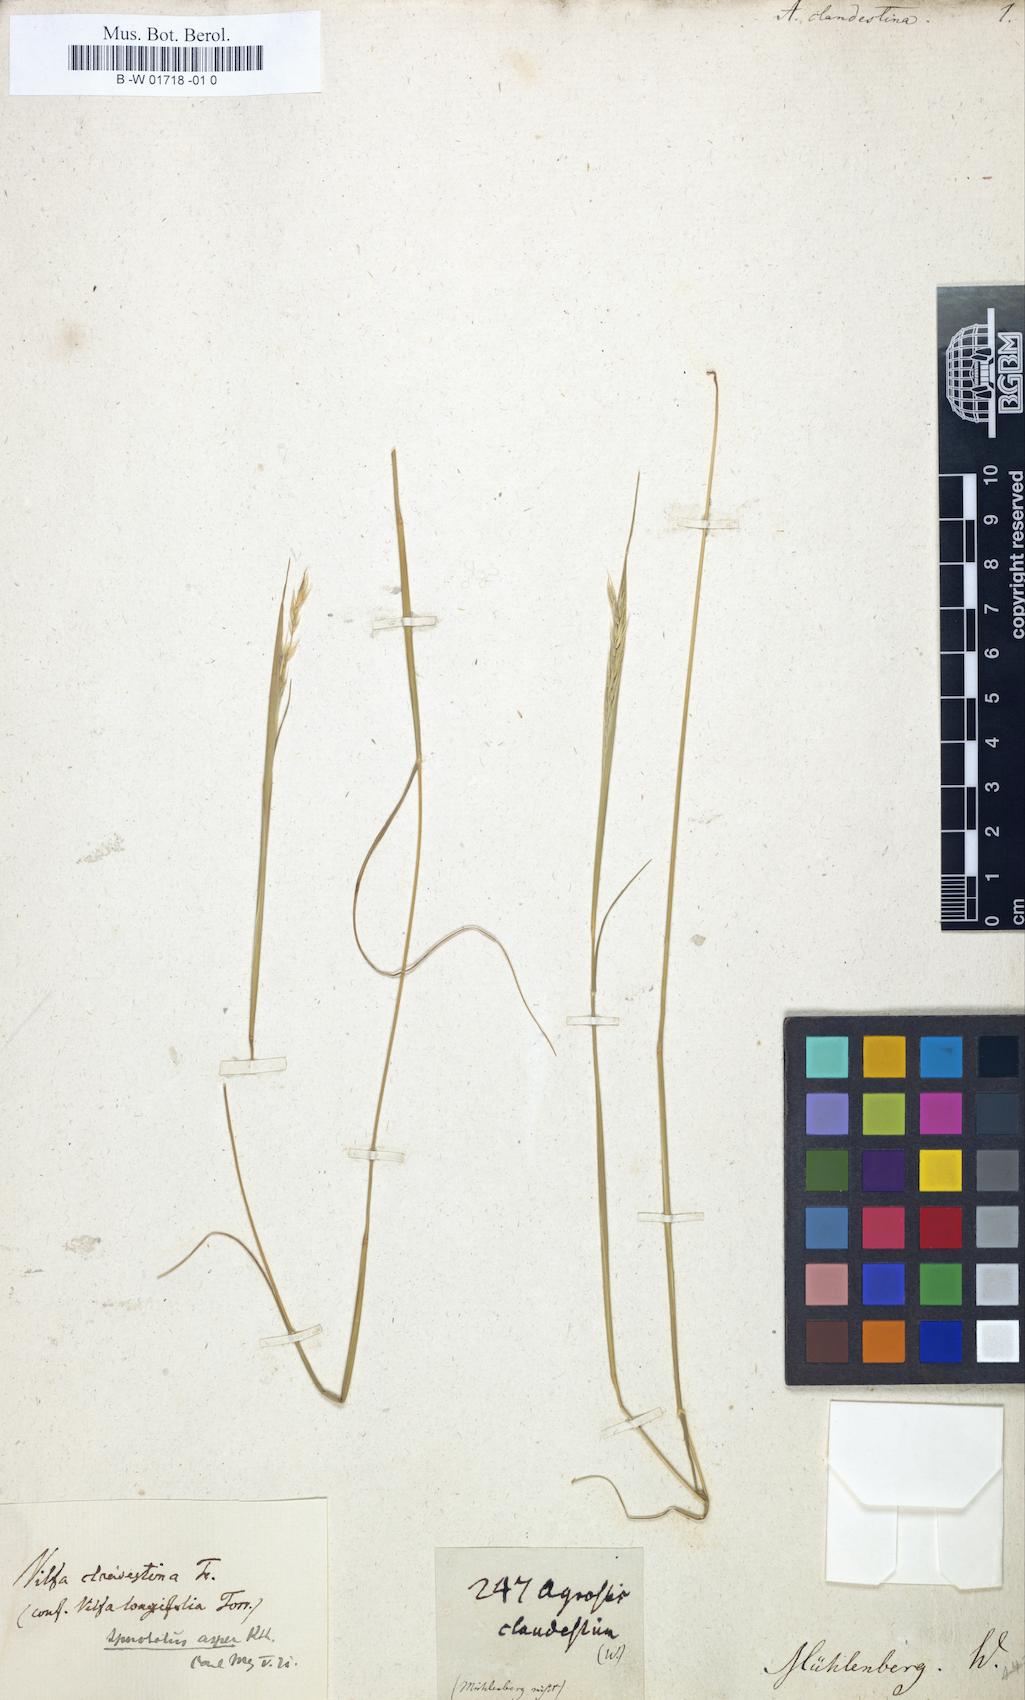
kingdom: Plantae
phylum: Tracheophyta
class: Liliopsida
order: Poales
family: Poaceae
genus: Sporobolus
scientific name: Sporobolus clandestinus
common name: Hidden dropseed
